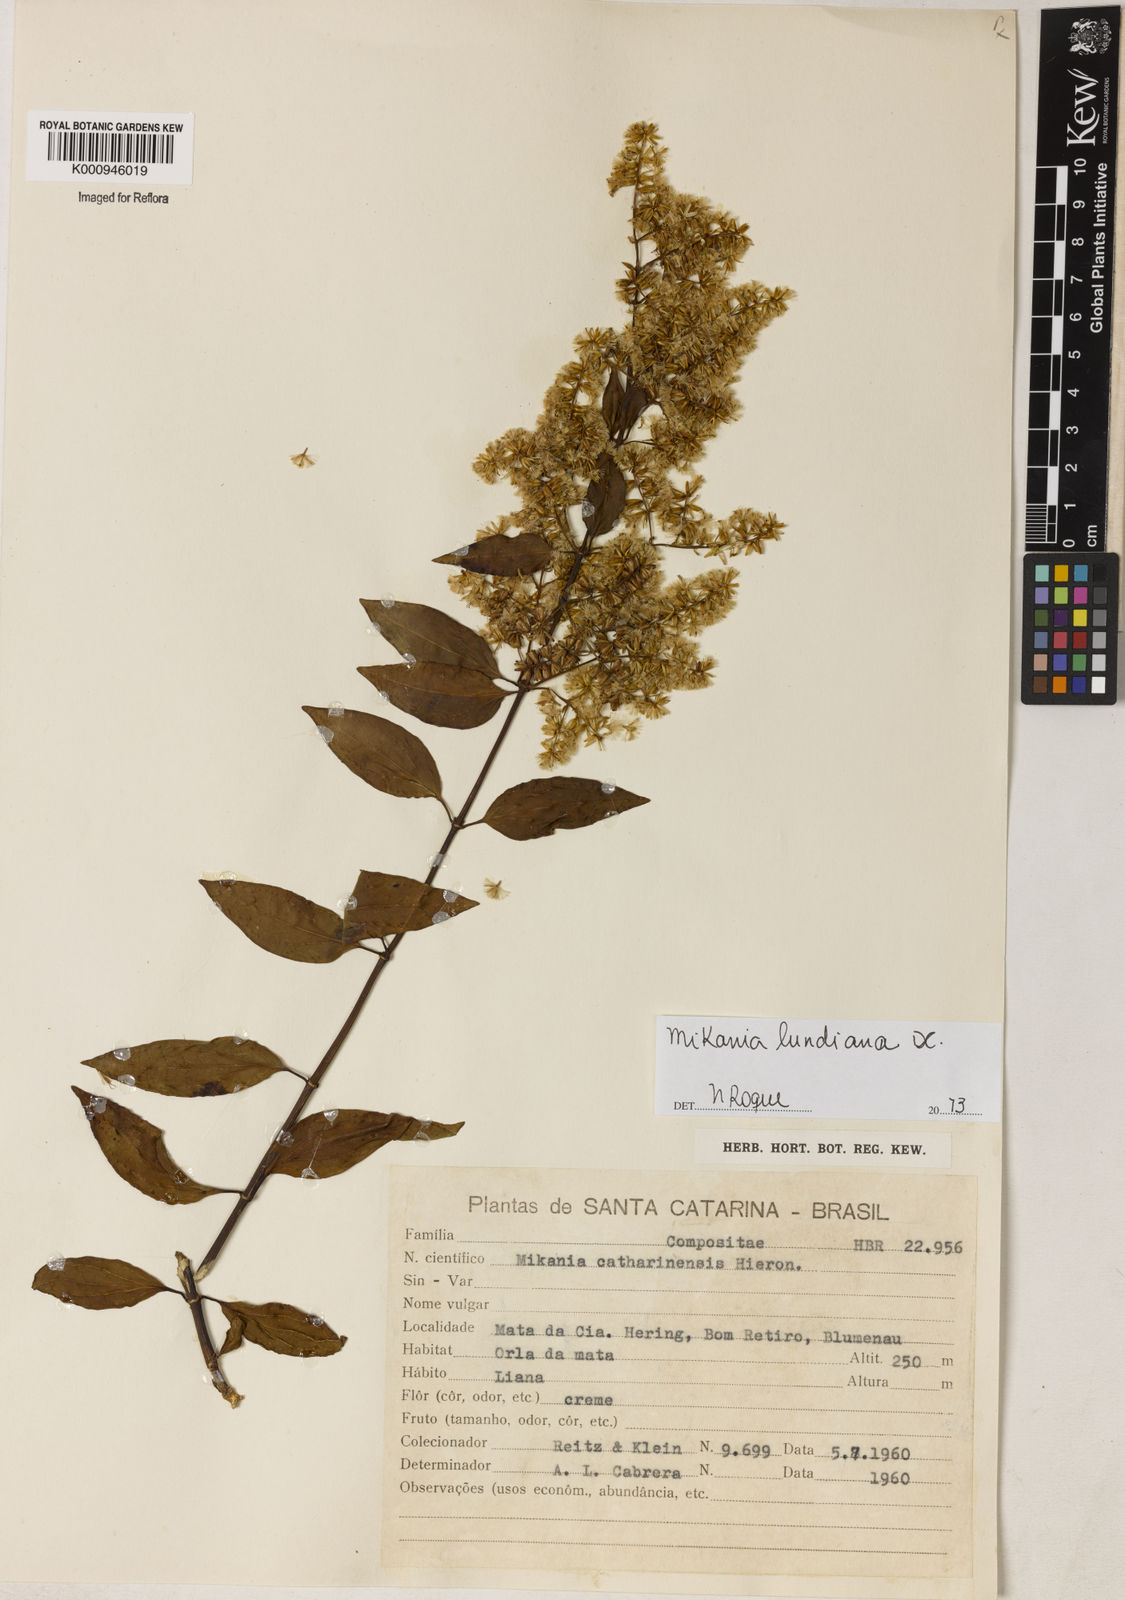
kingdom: Plantae
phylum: Tracheophyta
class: Magnoliopsida
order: Asterales
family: Asteraceae
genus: Mikania
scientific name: Mikania lundiana
